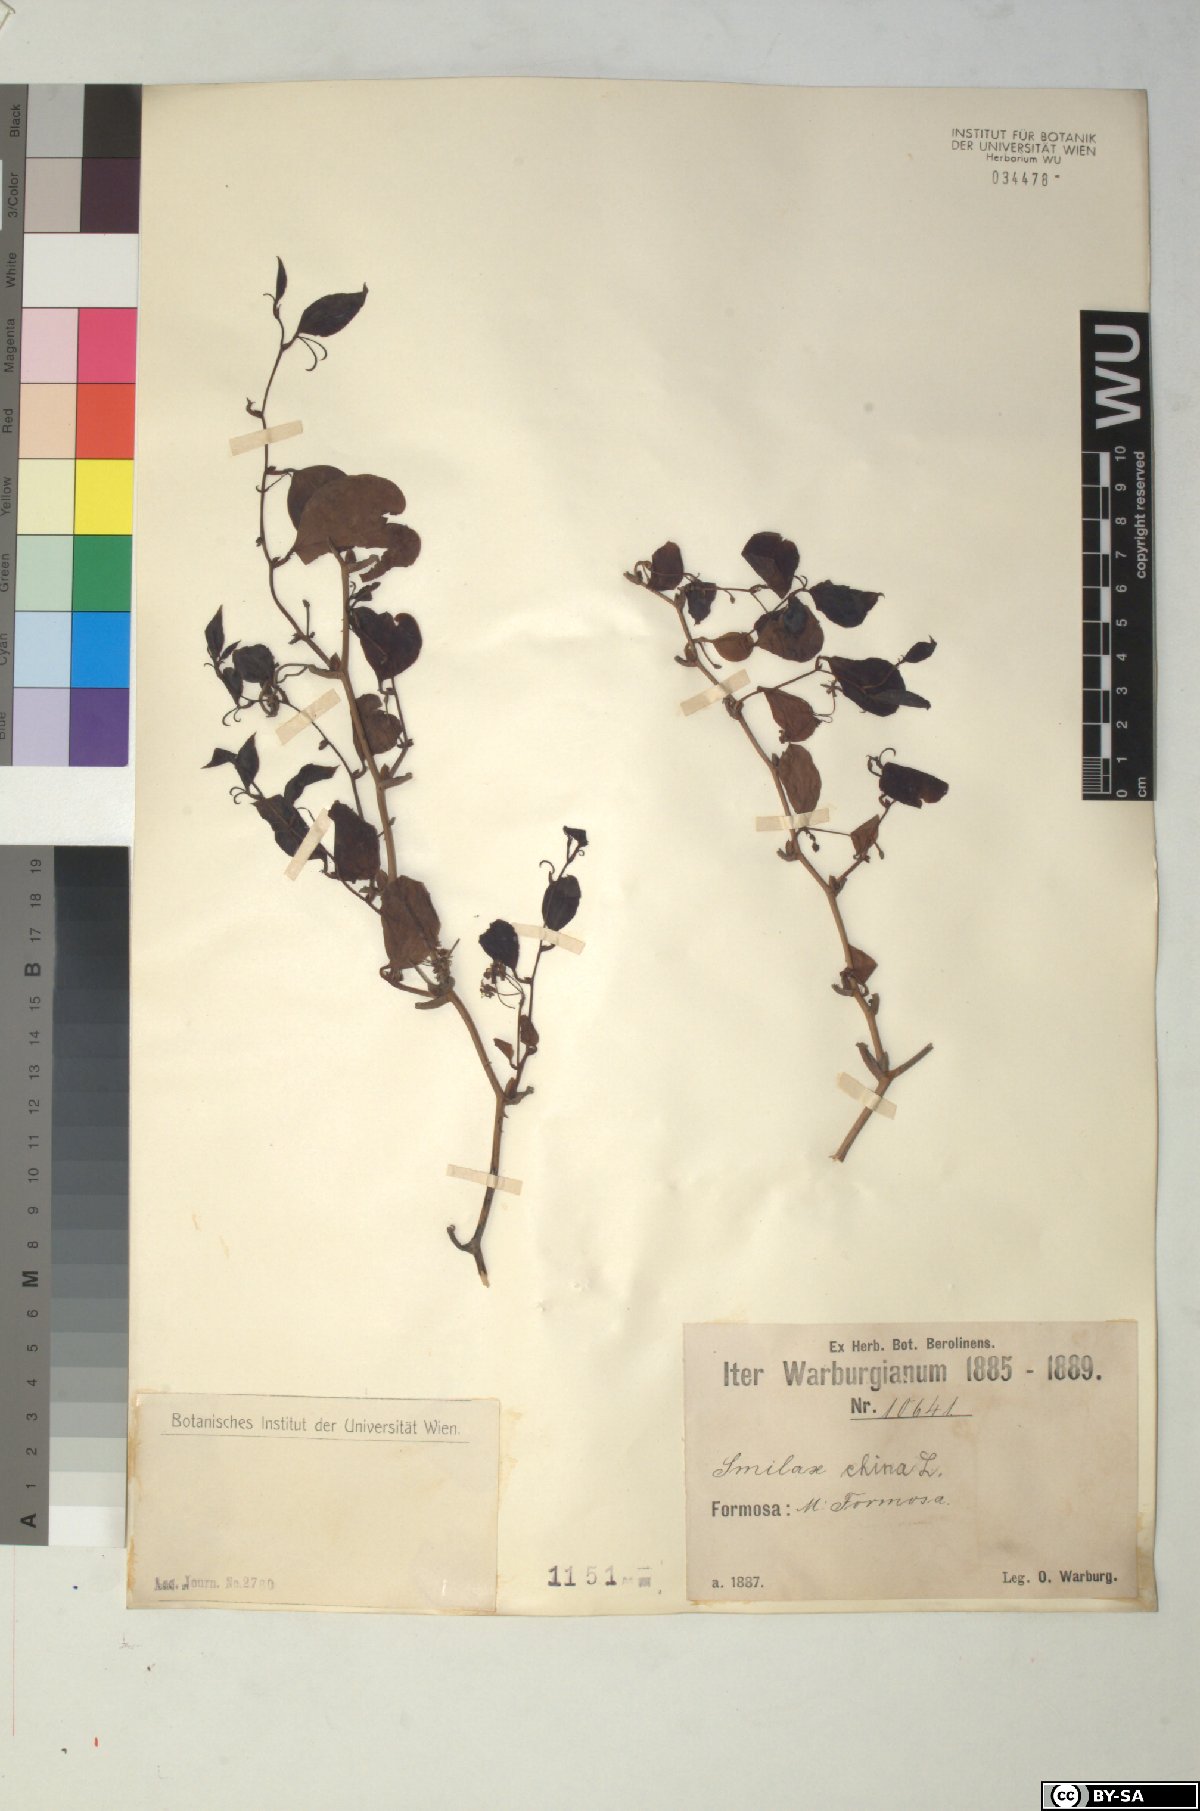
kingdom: Plantae
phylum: Tracheophyta
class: Liliopsida
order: Liliales
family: Smilacaceae
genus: Smilax
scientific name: Smilax china
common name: Chinaroot
